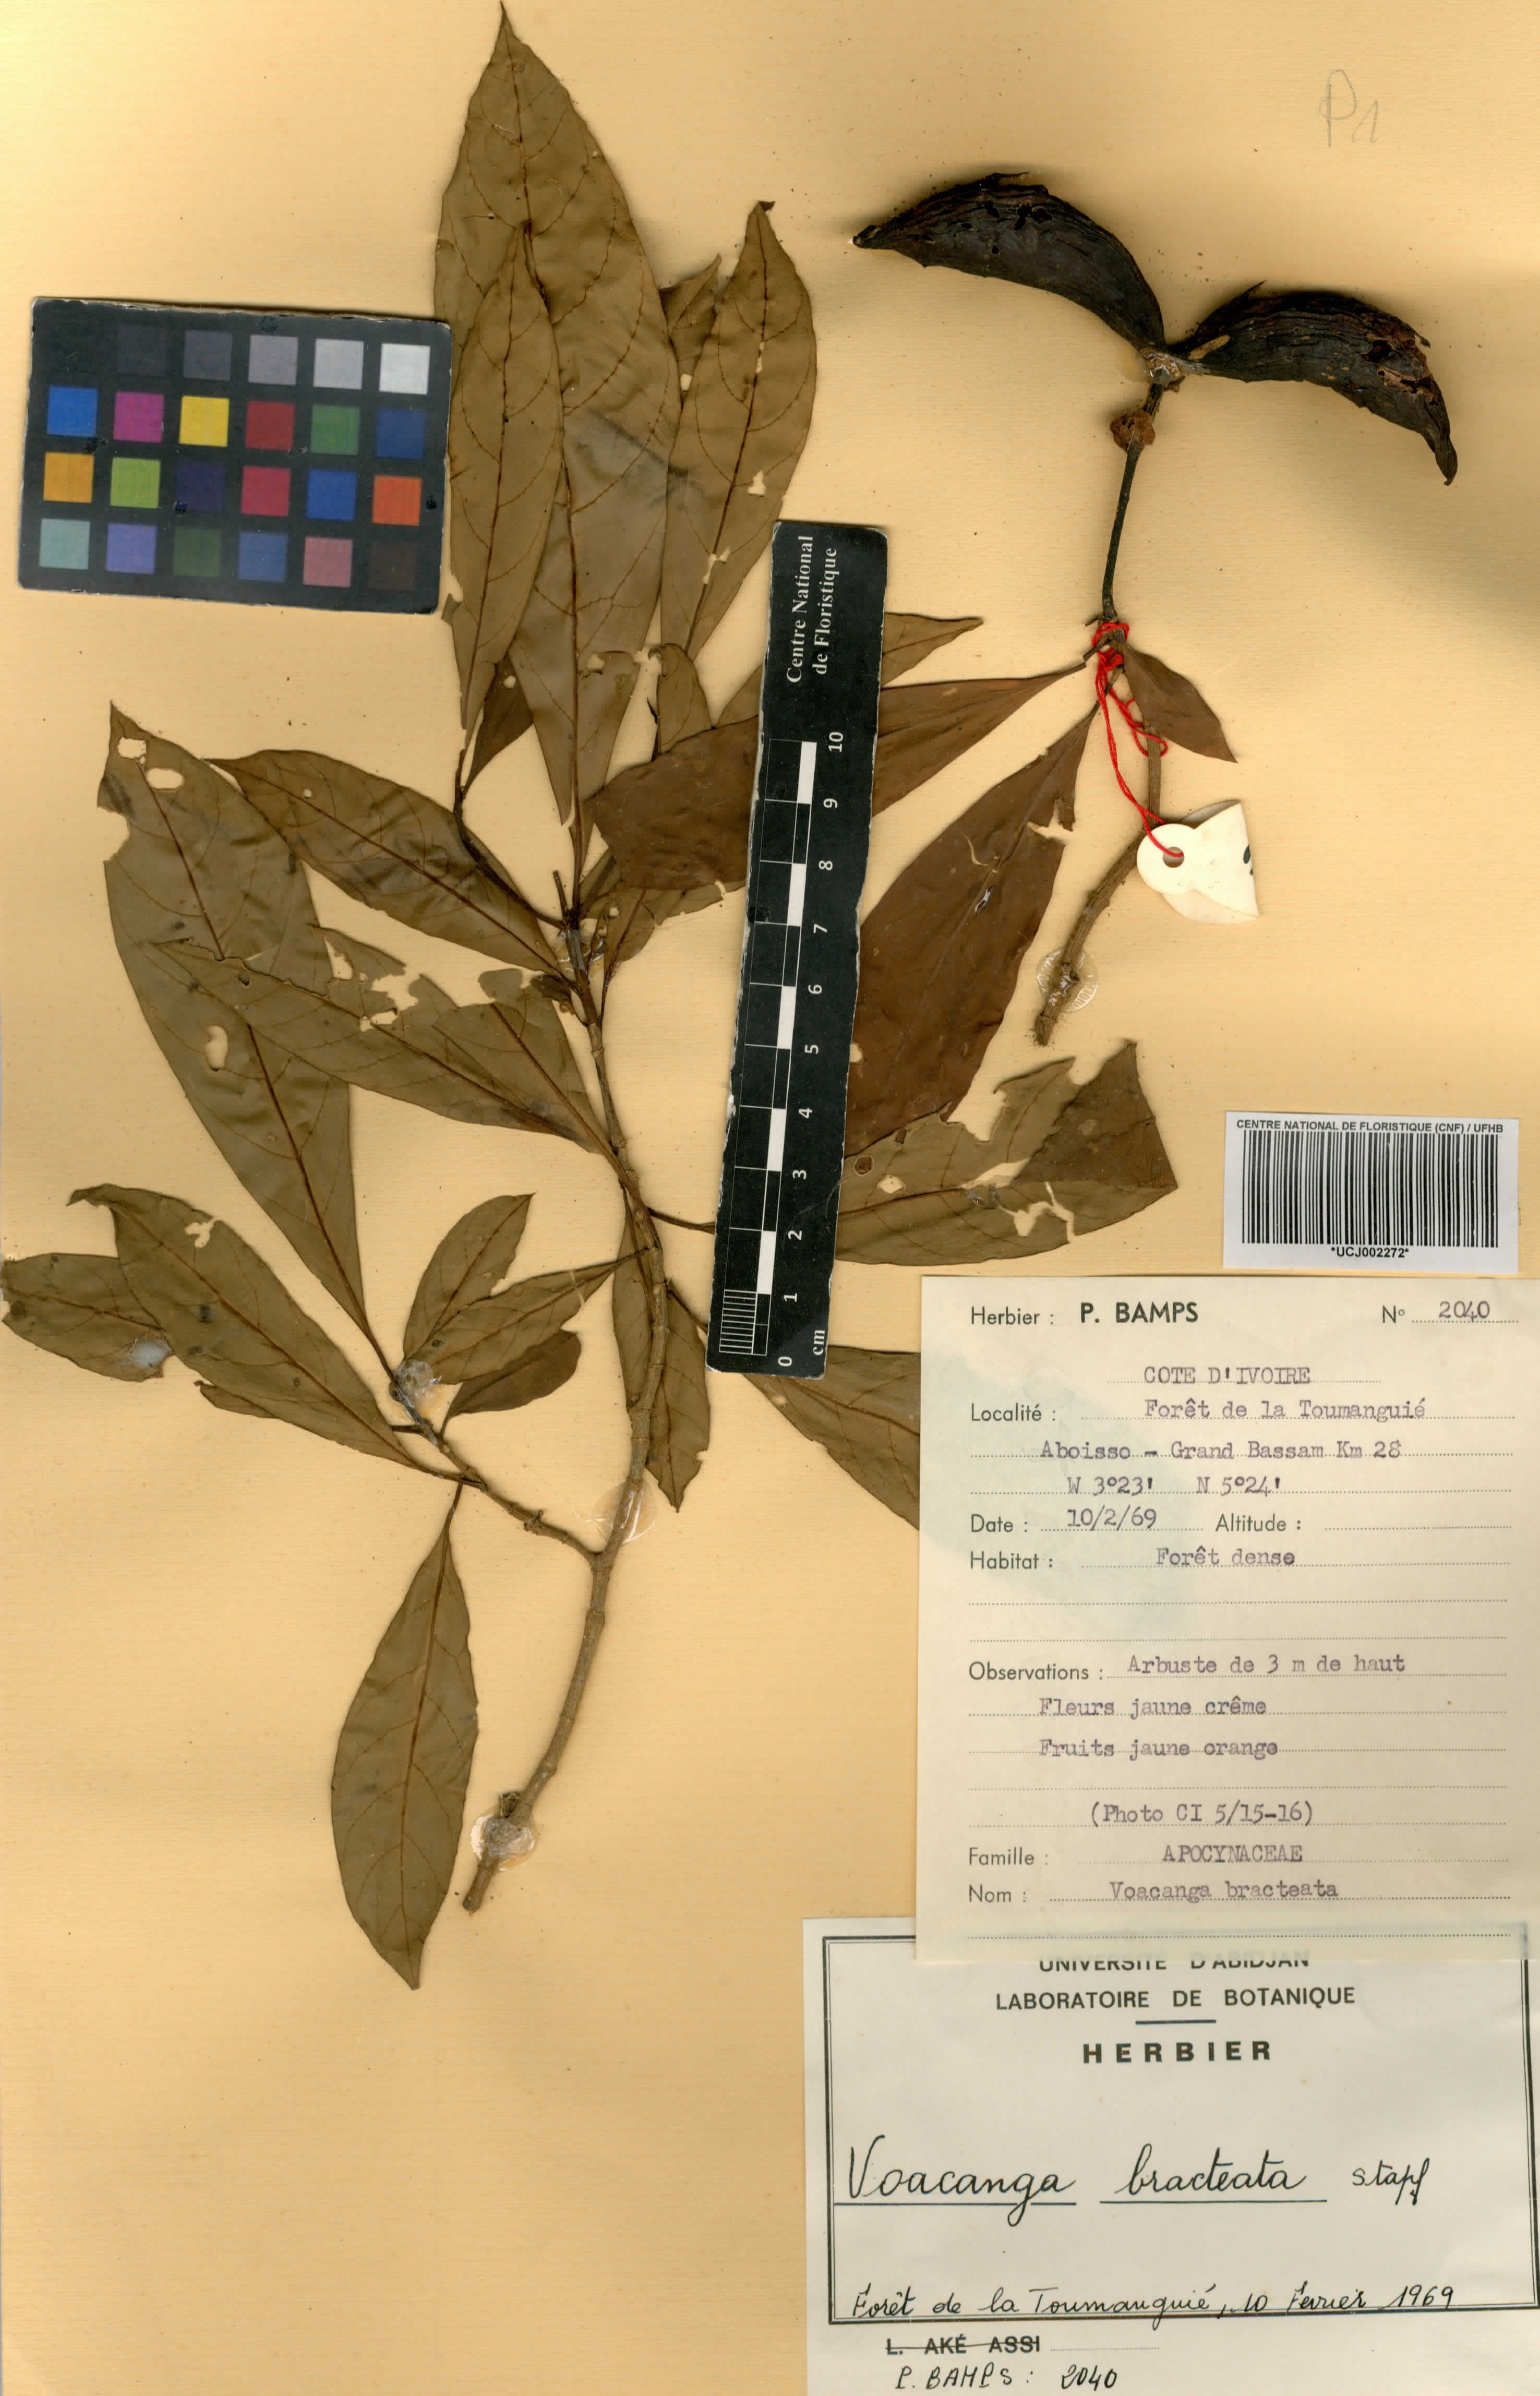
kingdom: Plantae
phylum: Tracheophyta
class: Magnoliopsida
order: Gentianales
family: Apocynaceae
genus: Voacanga
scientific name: Voacanga bracteata
